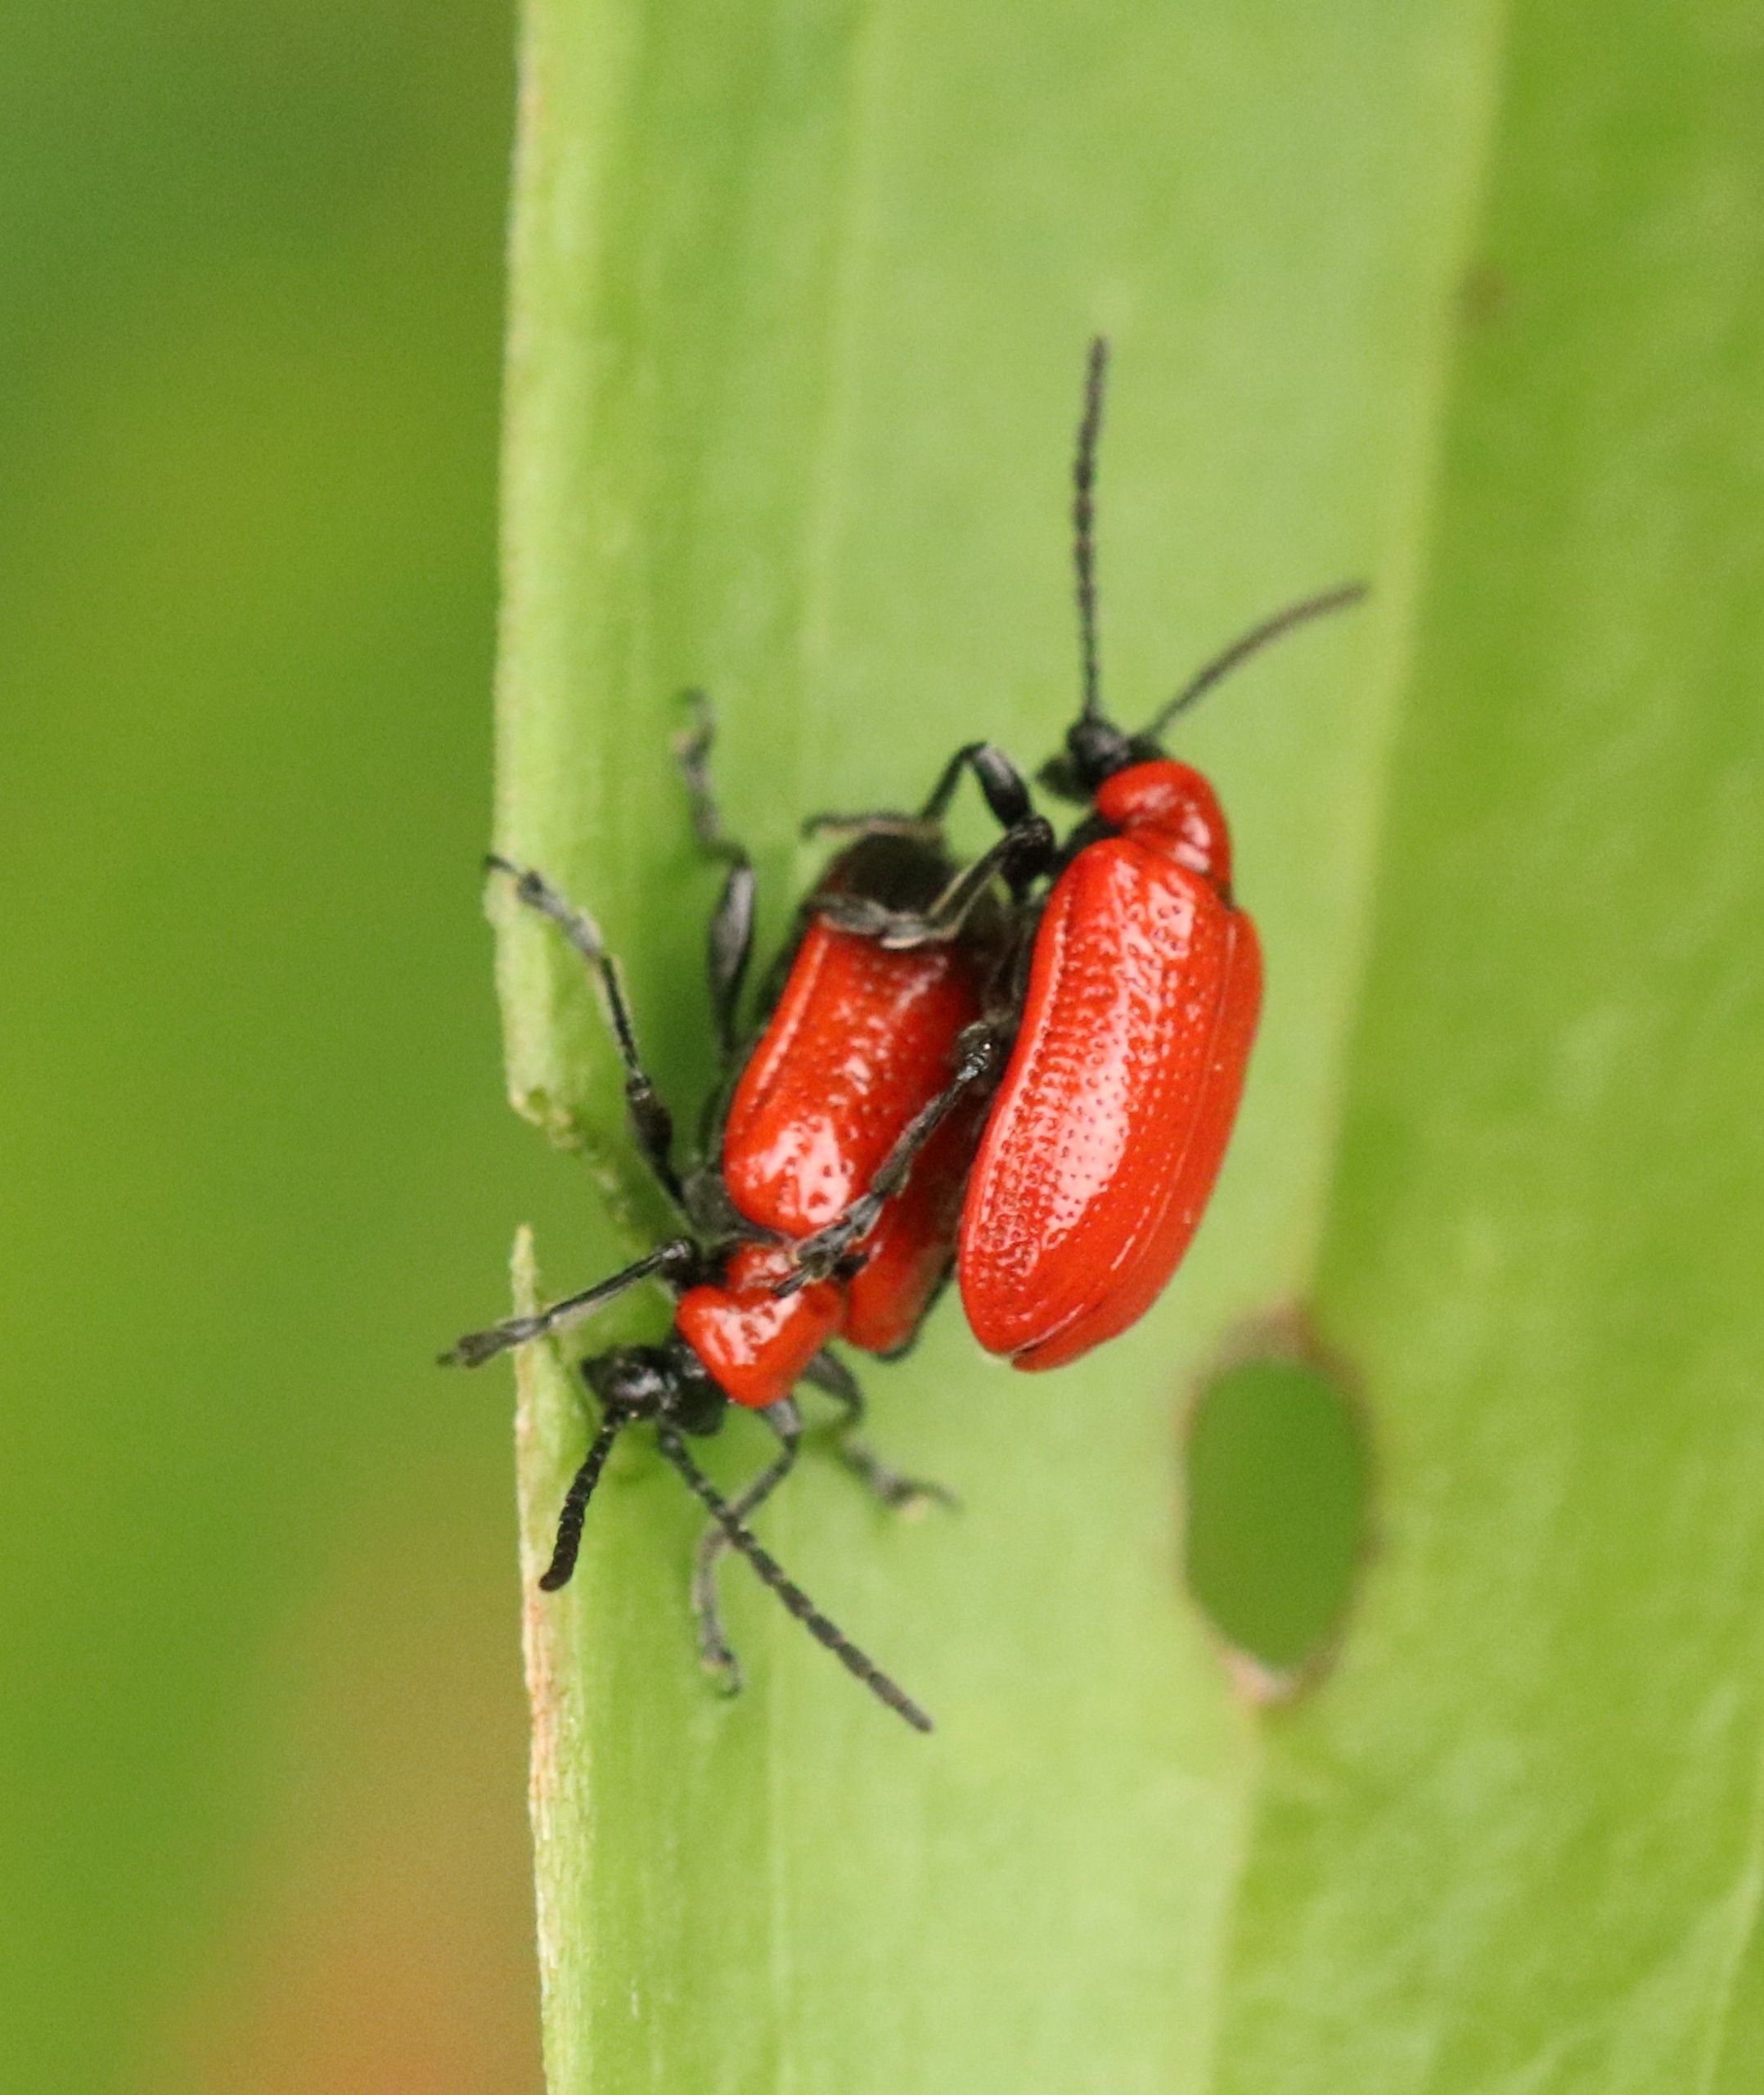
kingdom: Animalia
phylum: Arthropoda
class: Insecta
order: Coleoptera
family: Chrysomelidae
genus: Lilioceris
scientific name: Lilioceris lilii
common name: Liljebille
